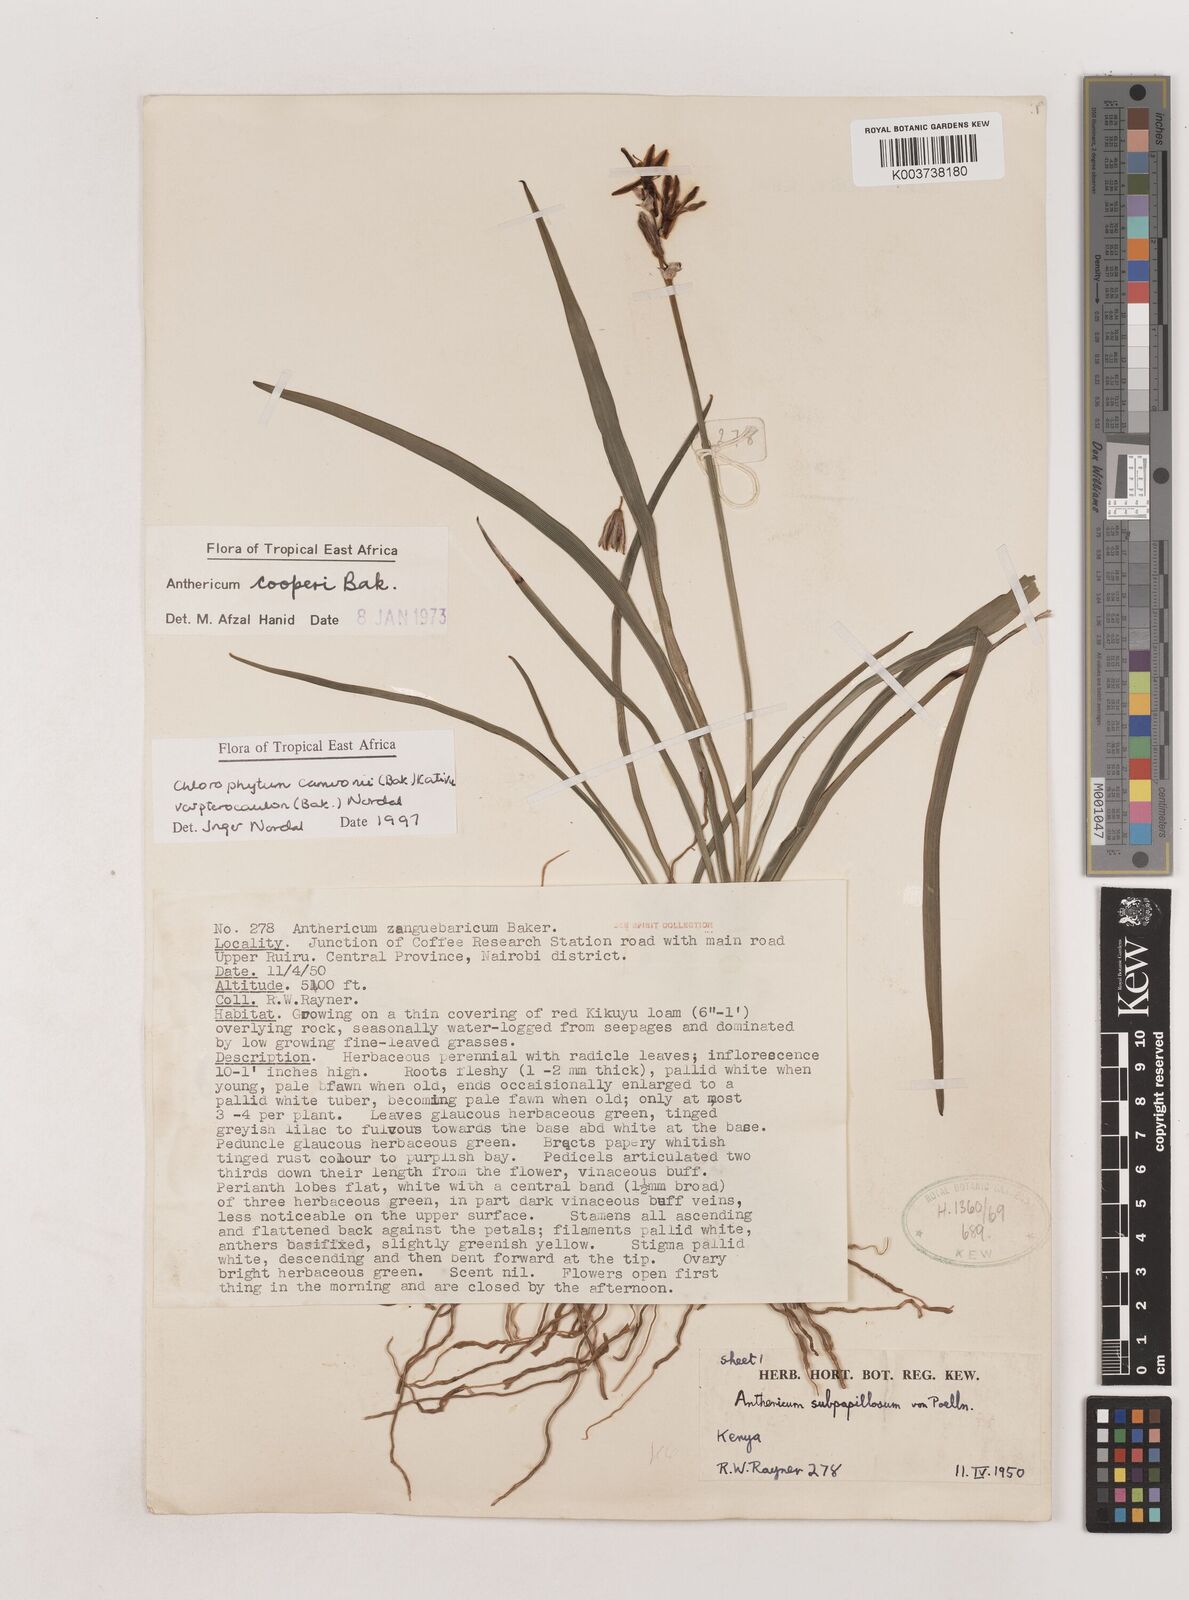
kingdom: Plantae
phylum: Tracheophyta
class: Liliopsida
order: Asparagales
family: Asparagaceae
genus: Chlorophytum
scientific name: Chlorophytum cameronii
